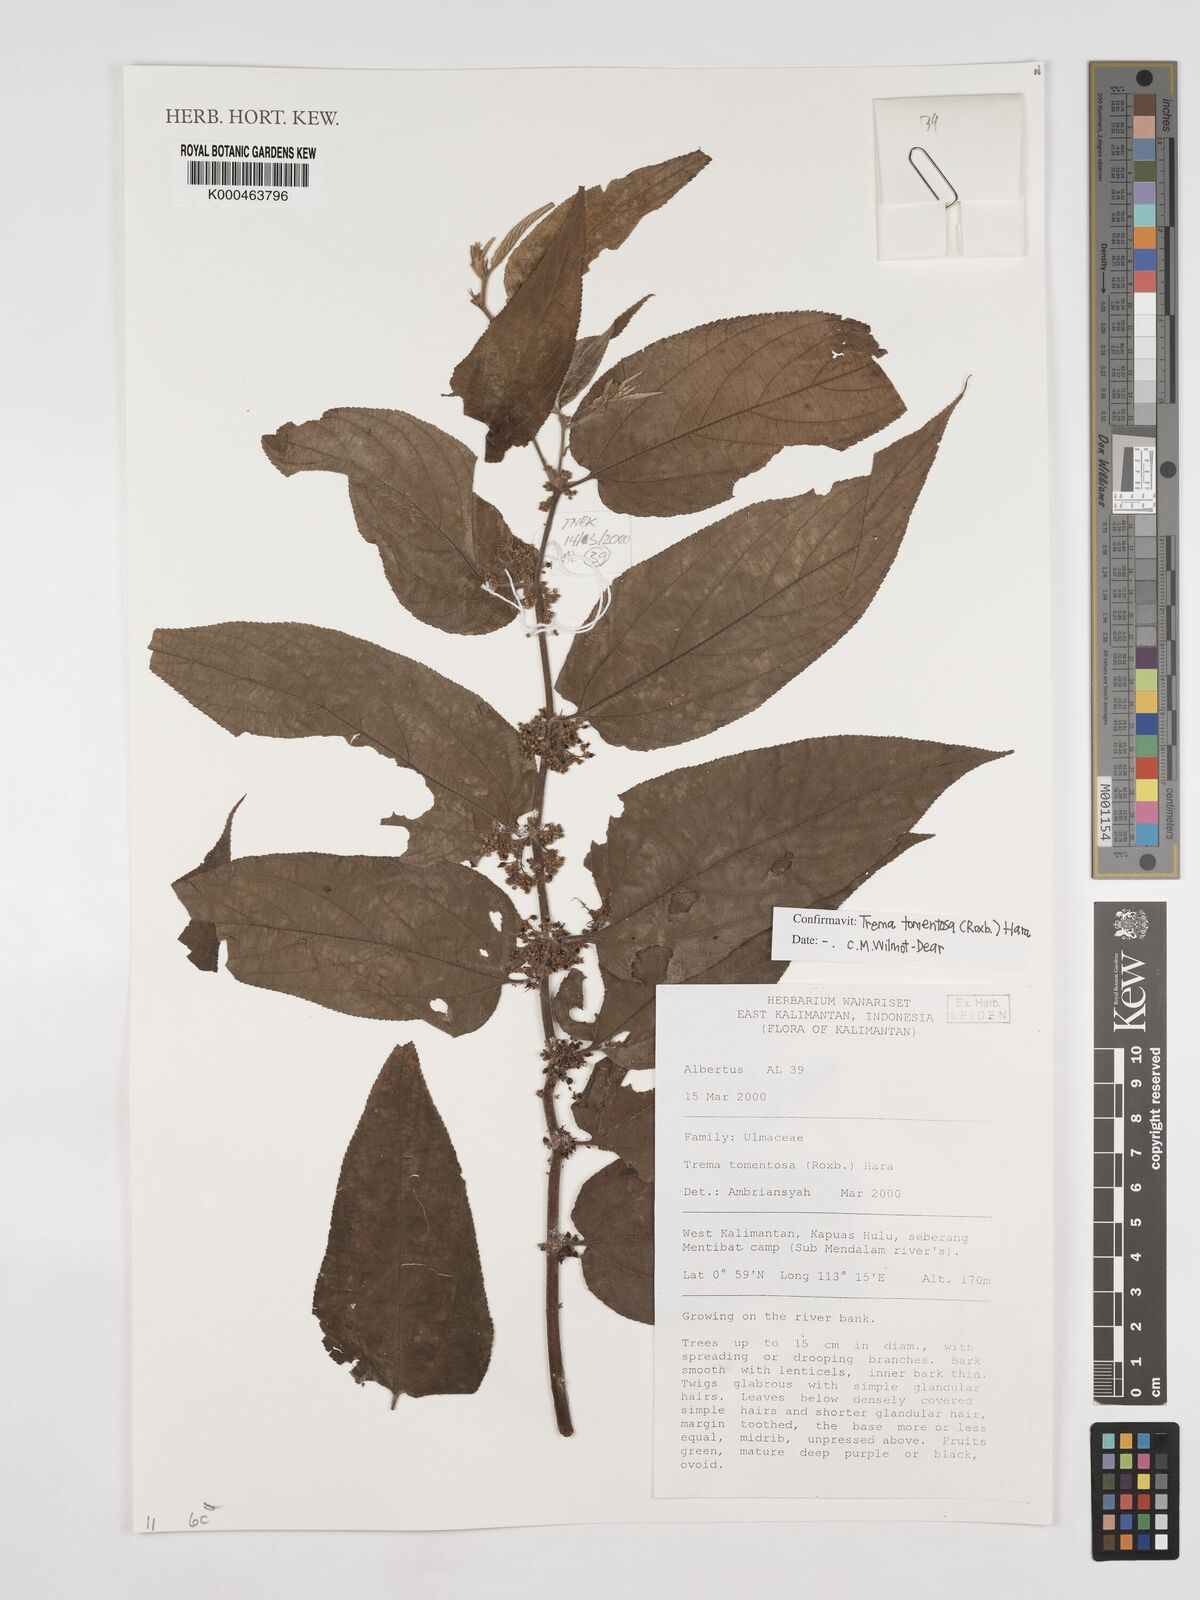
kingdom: Plantae
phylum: Tracheophyta
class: Magnoliopsida
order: Rosales
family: Cannabaceae
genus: Trema
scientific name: Trema tomentosum
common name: Peach-leaf-poisonbush
